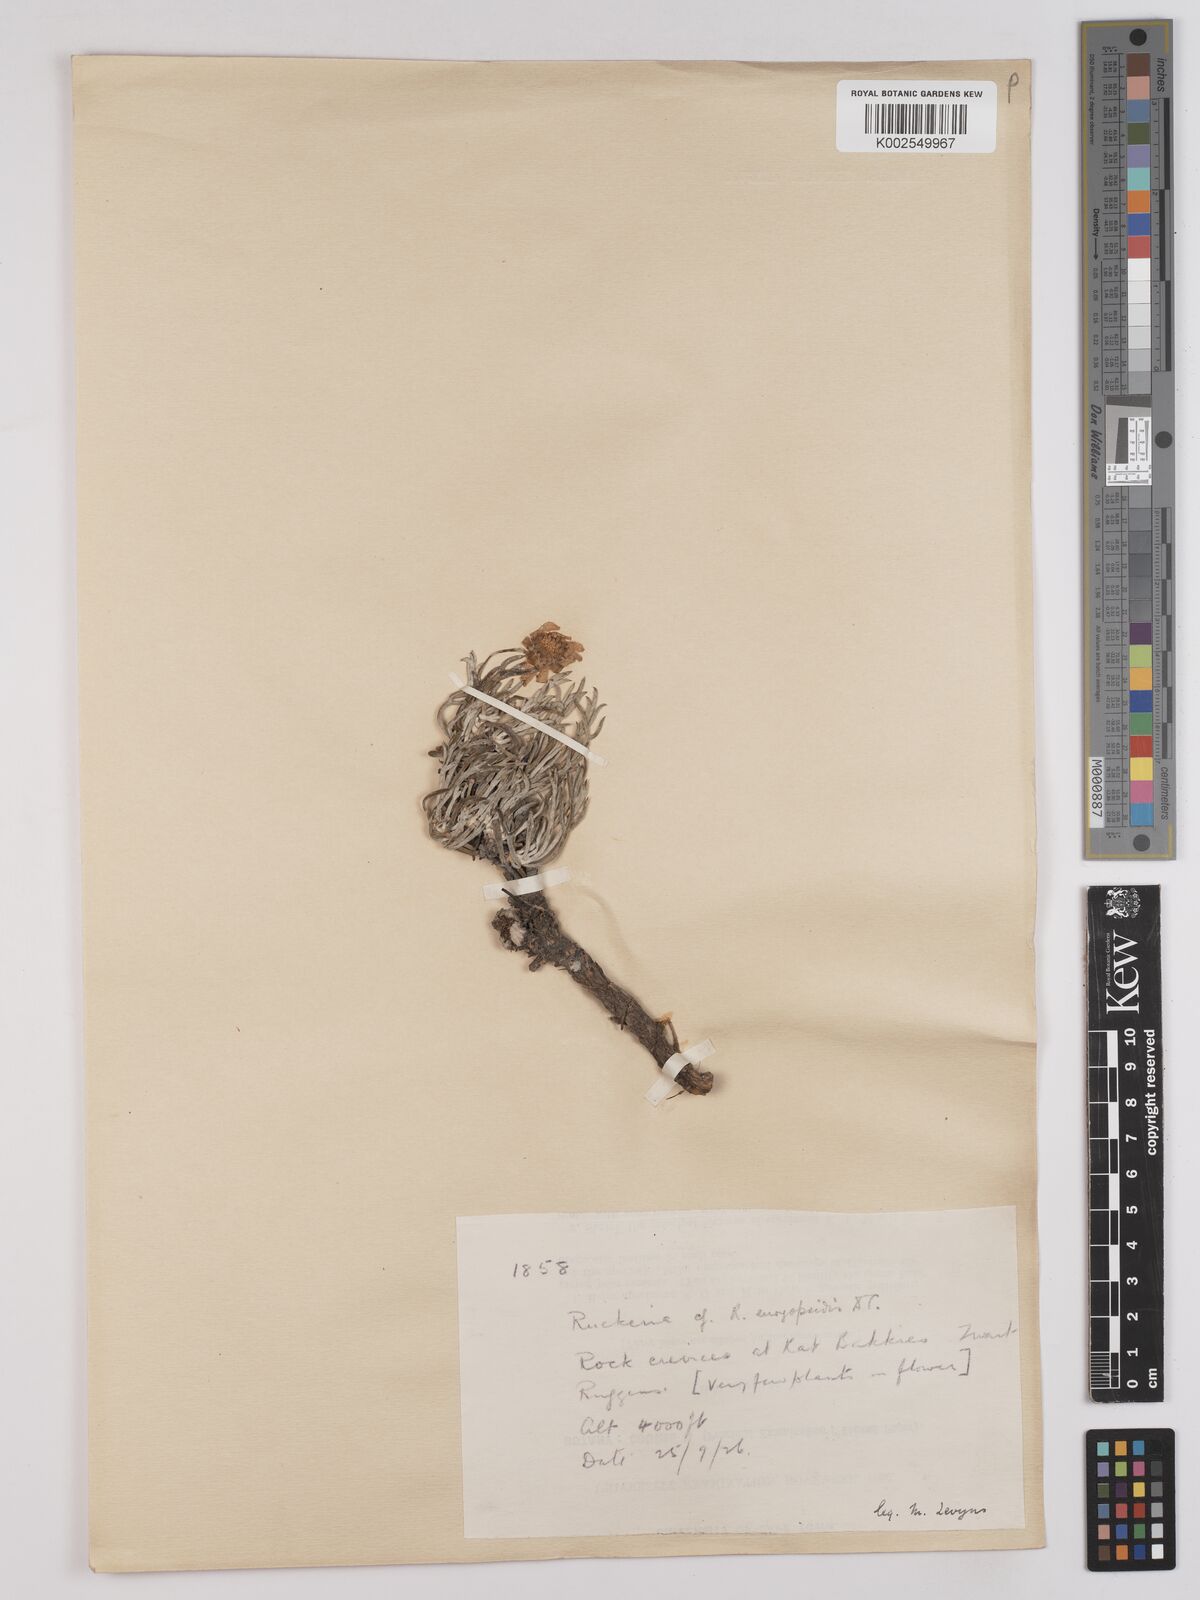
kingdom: Plantae
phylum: Tracheophyta
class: Magnoliopsida
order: Asterales
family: Asteraceae
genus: Euryops
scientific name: Euryops euryopoides
